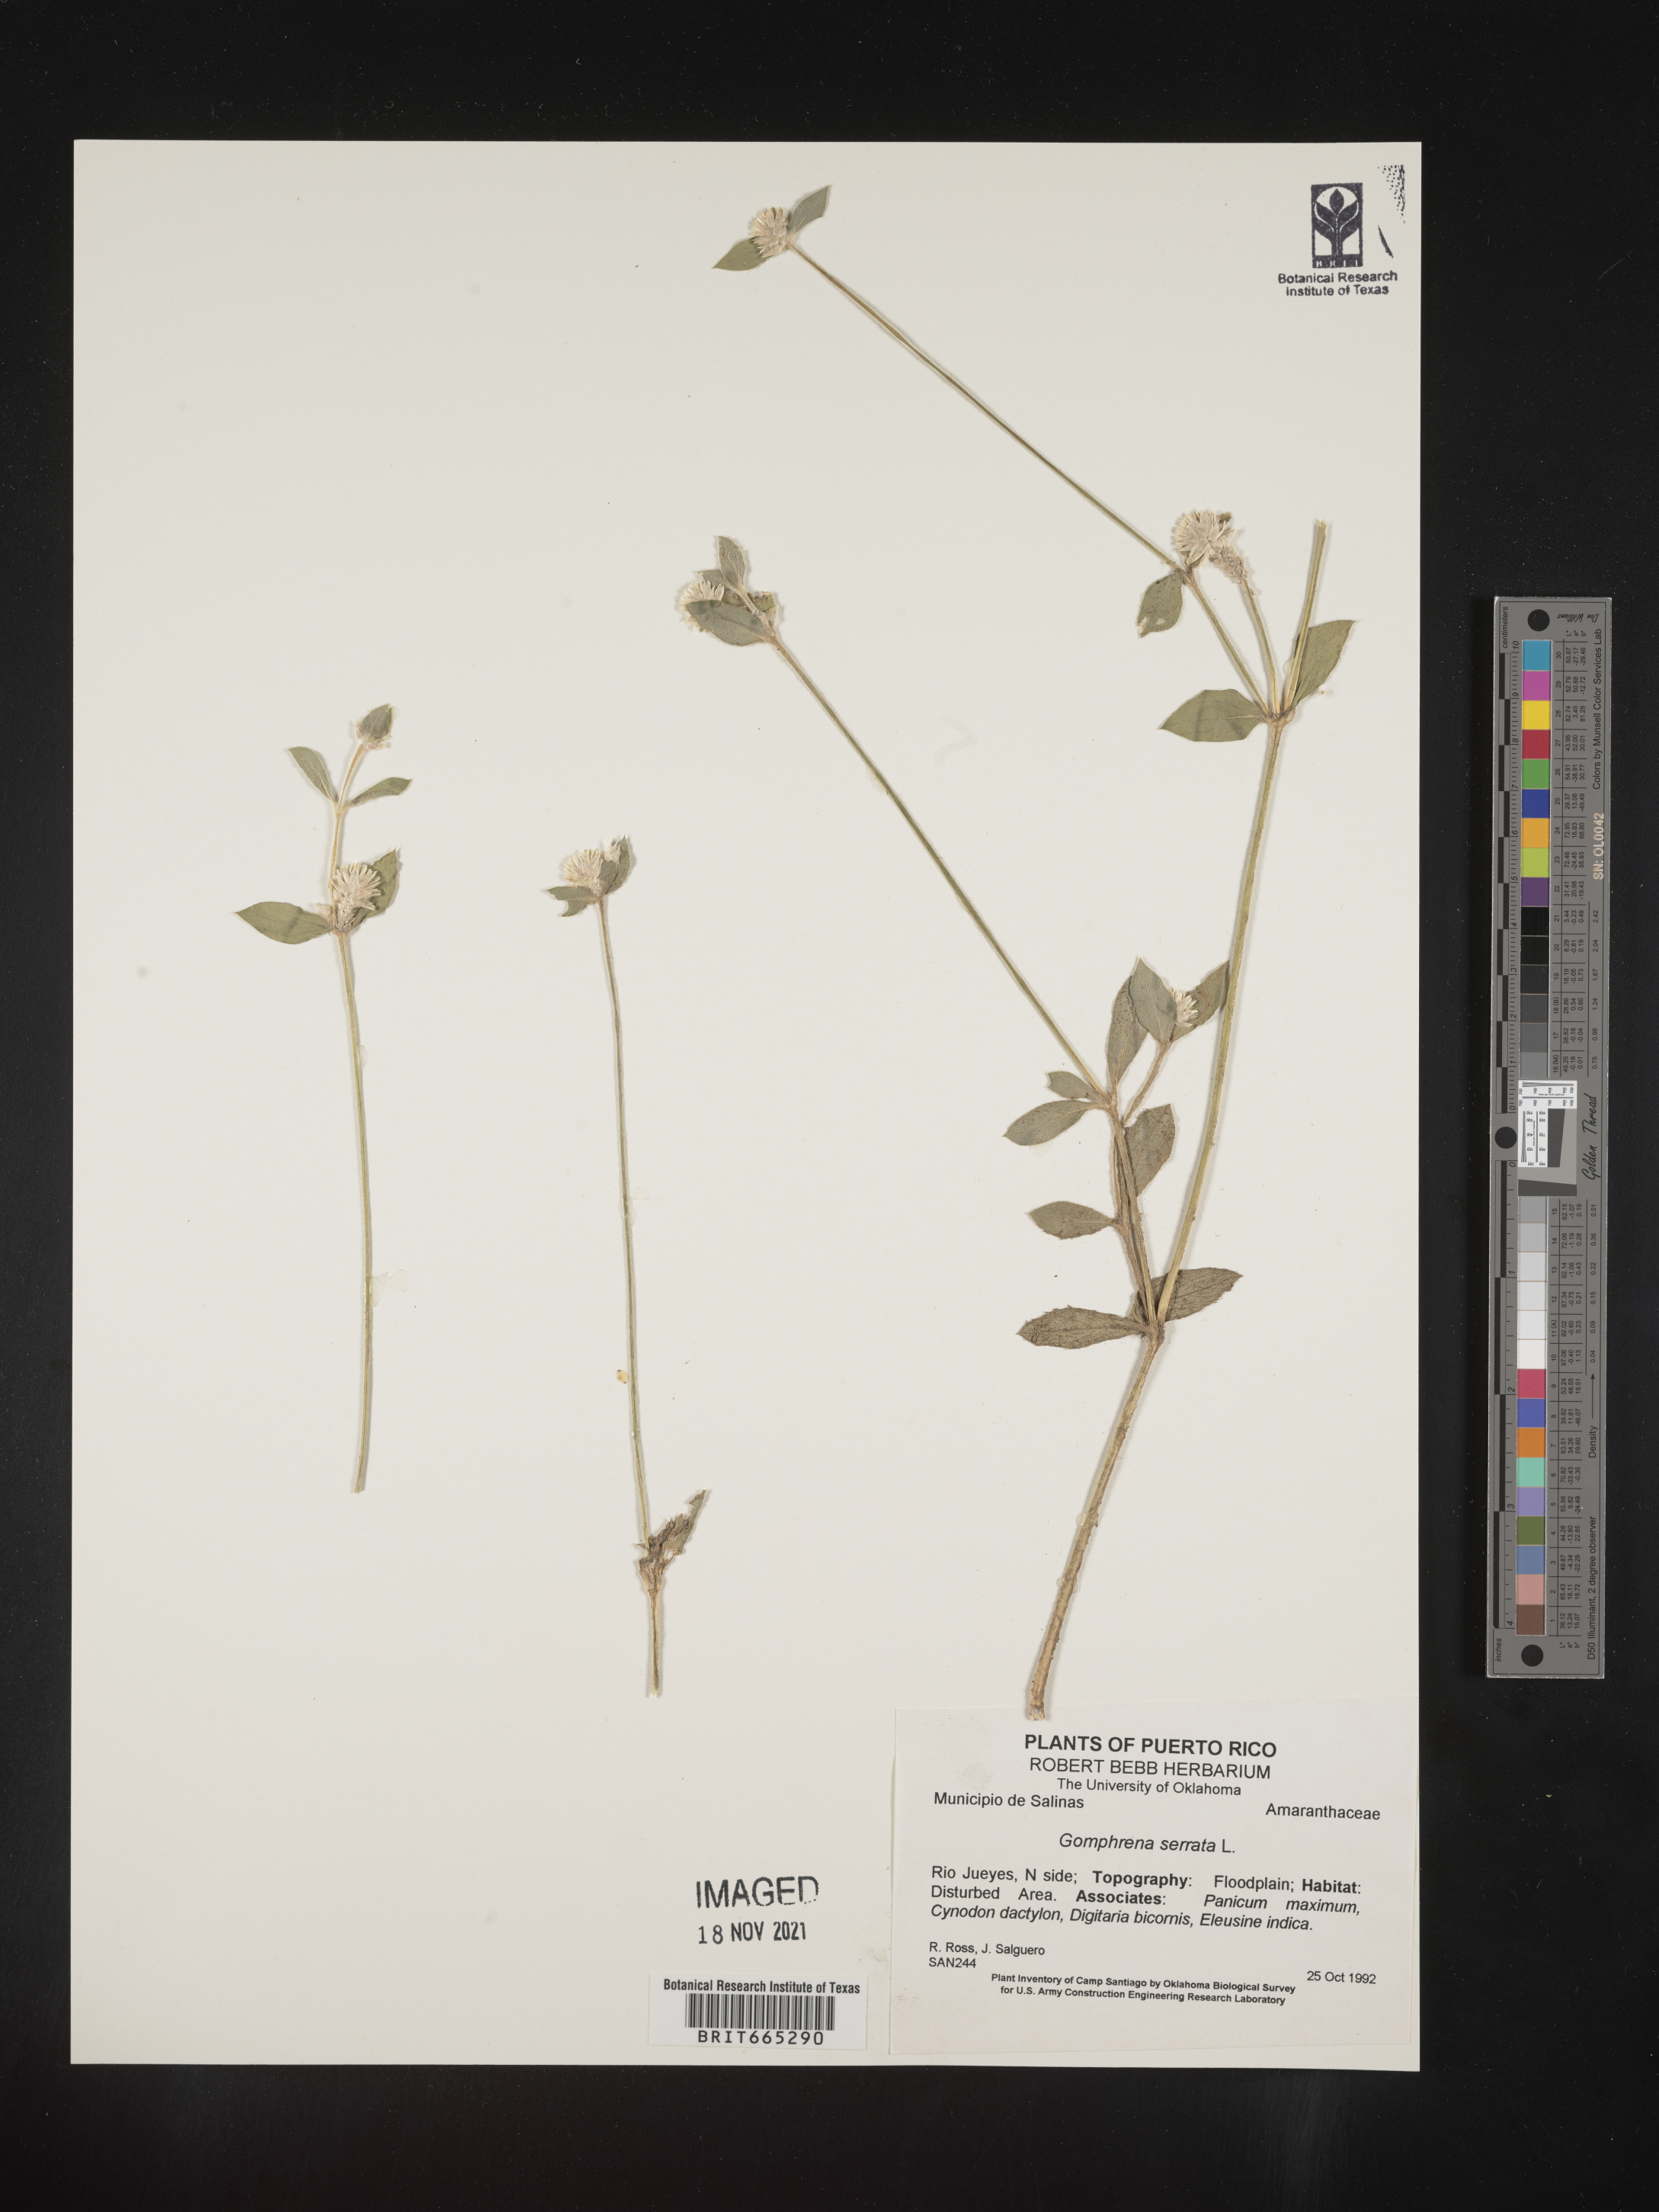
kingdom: Plantae
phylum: Tracheophyta
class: Magnoliopsida
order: Caryophyllales
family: Amaranthaceae
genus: Gomphrena
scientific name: Gomphrena
